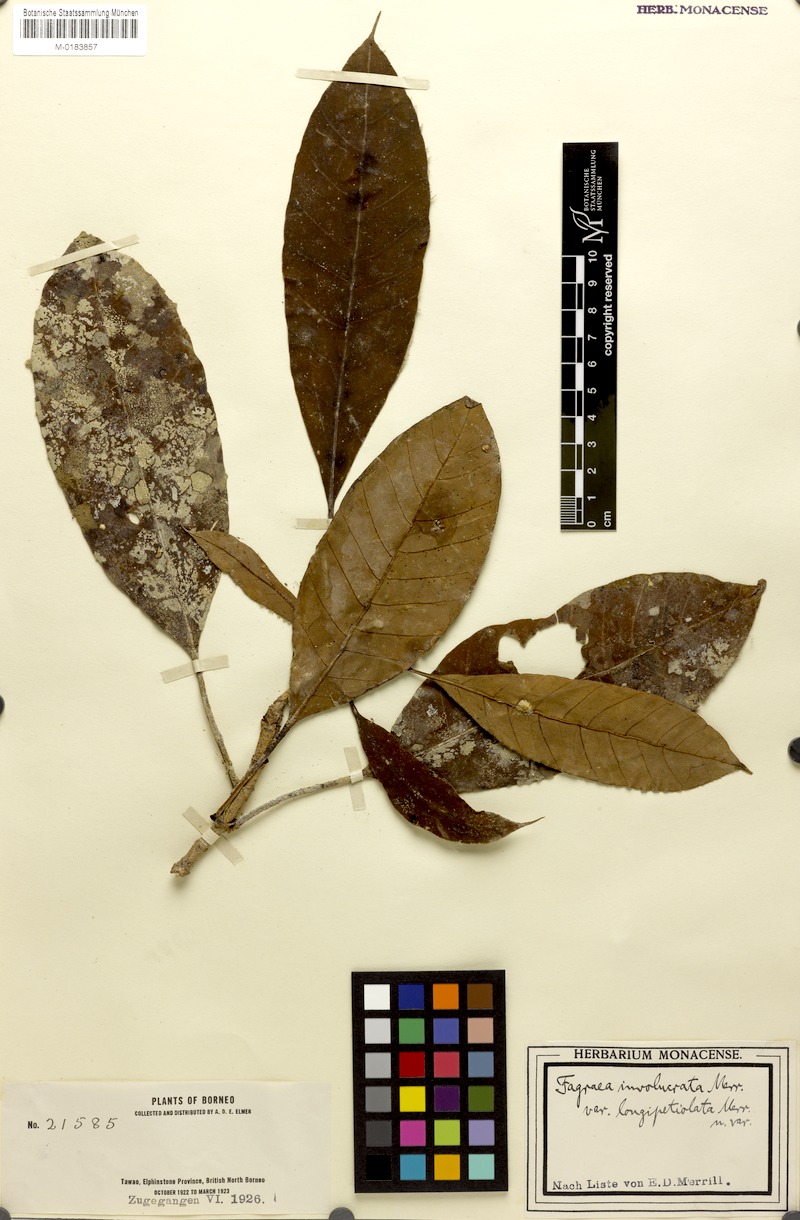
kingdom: Plantae
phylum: Tracheophyta
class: Magnoliopsida
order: Gentianales
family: Gentianaceae
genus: Fagraea
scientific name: Fagraea macroscypha
